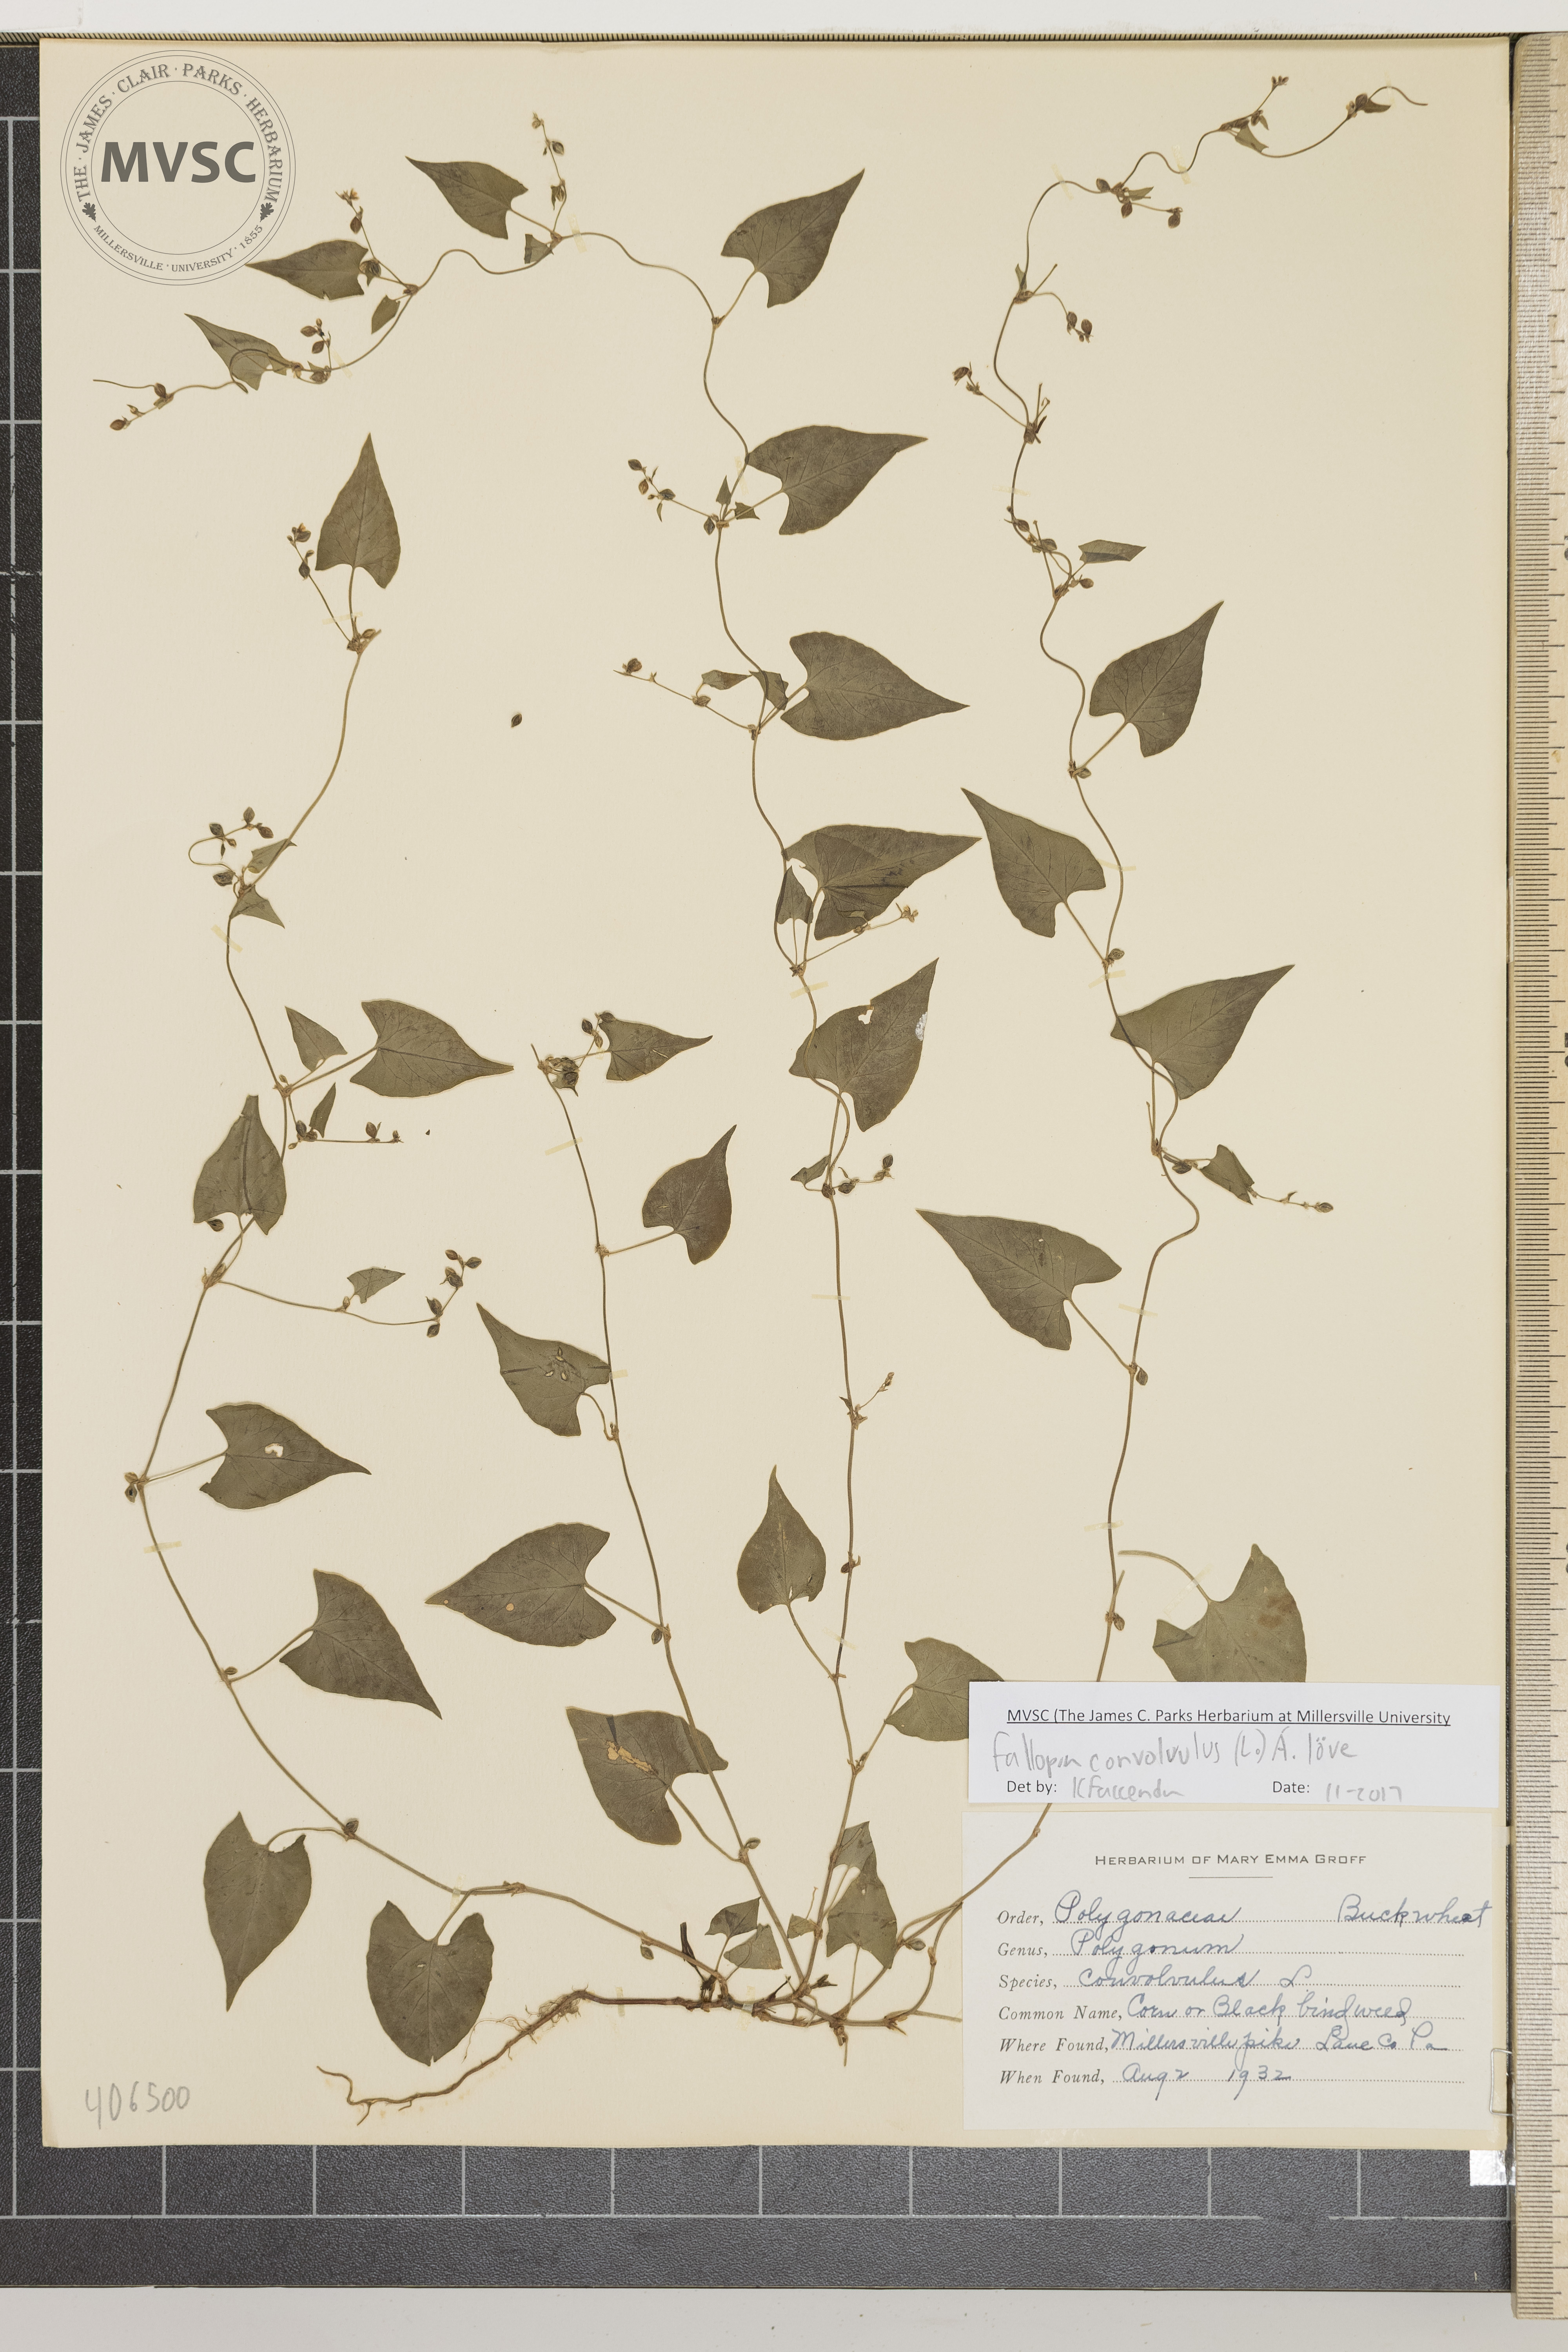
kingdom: Plantae
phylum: Tracheophyta
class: Magnoliopsida
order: Caryophyllales
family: Polygonaceae
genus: Fallopia
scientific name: Fallopia convolvulus
